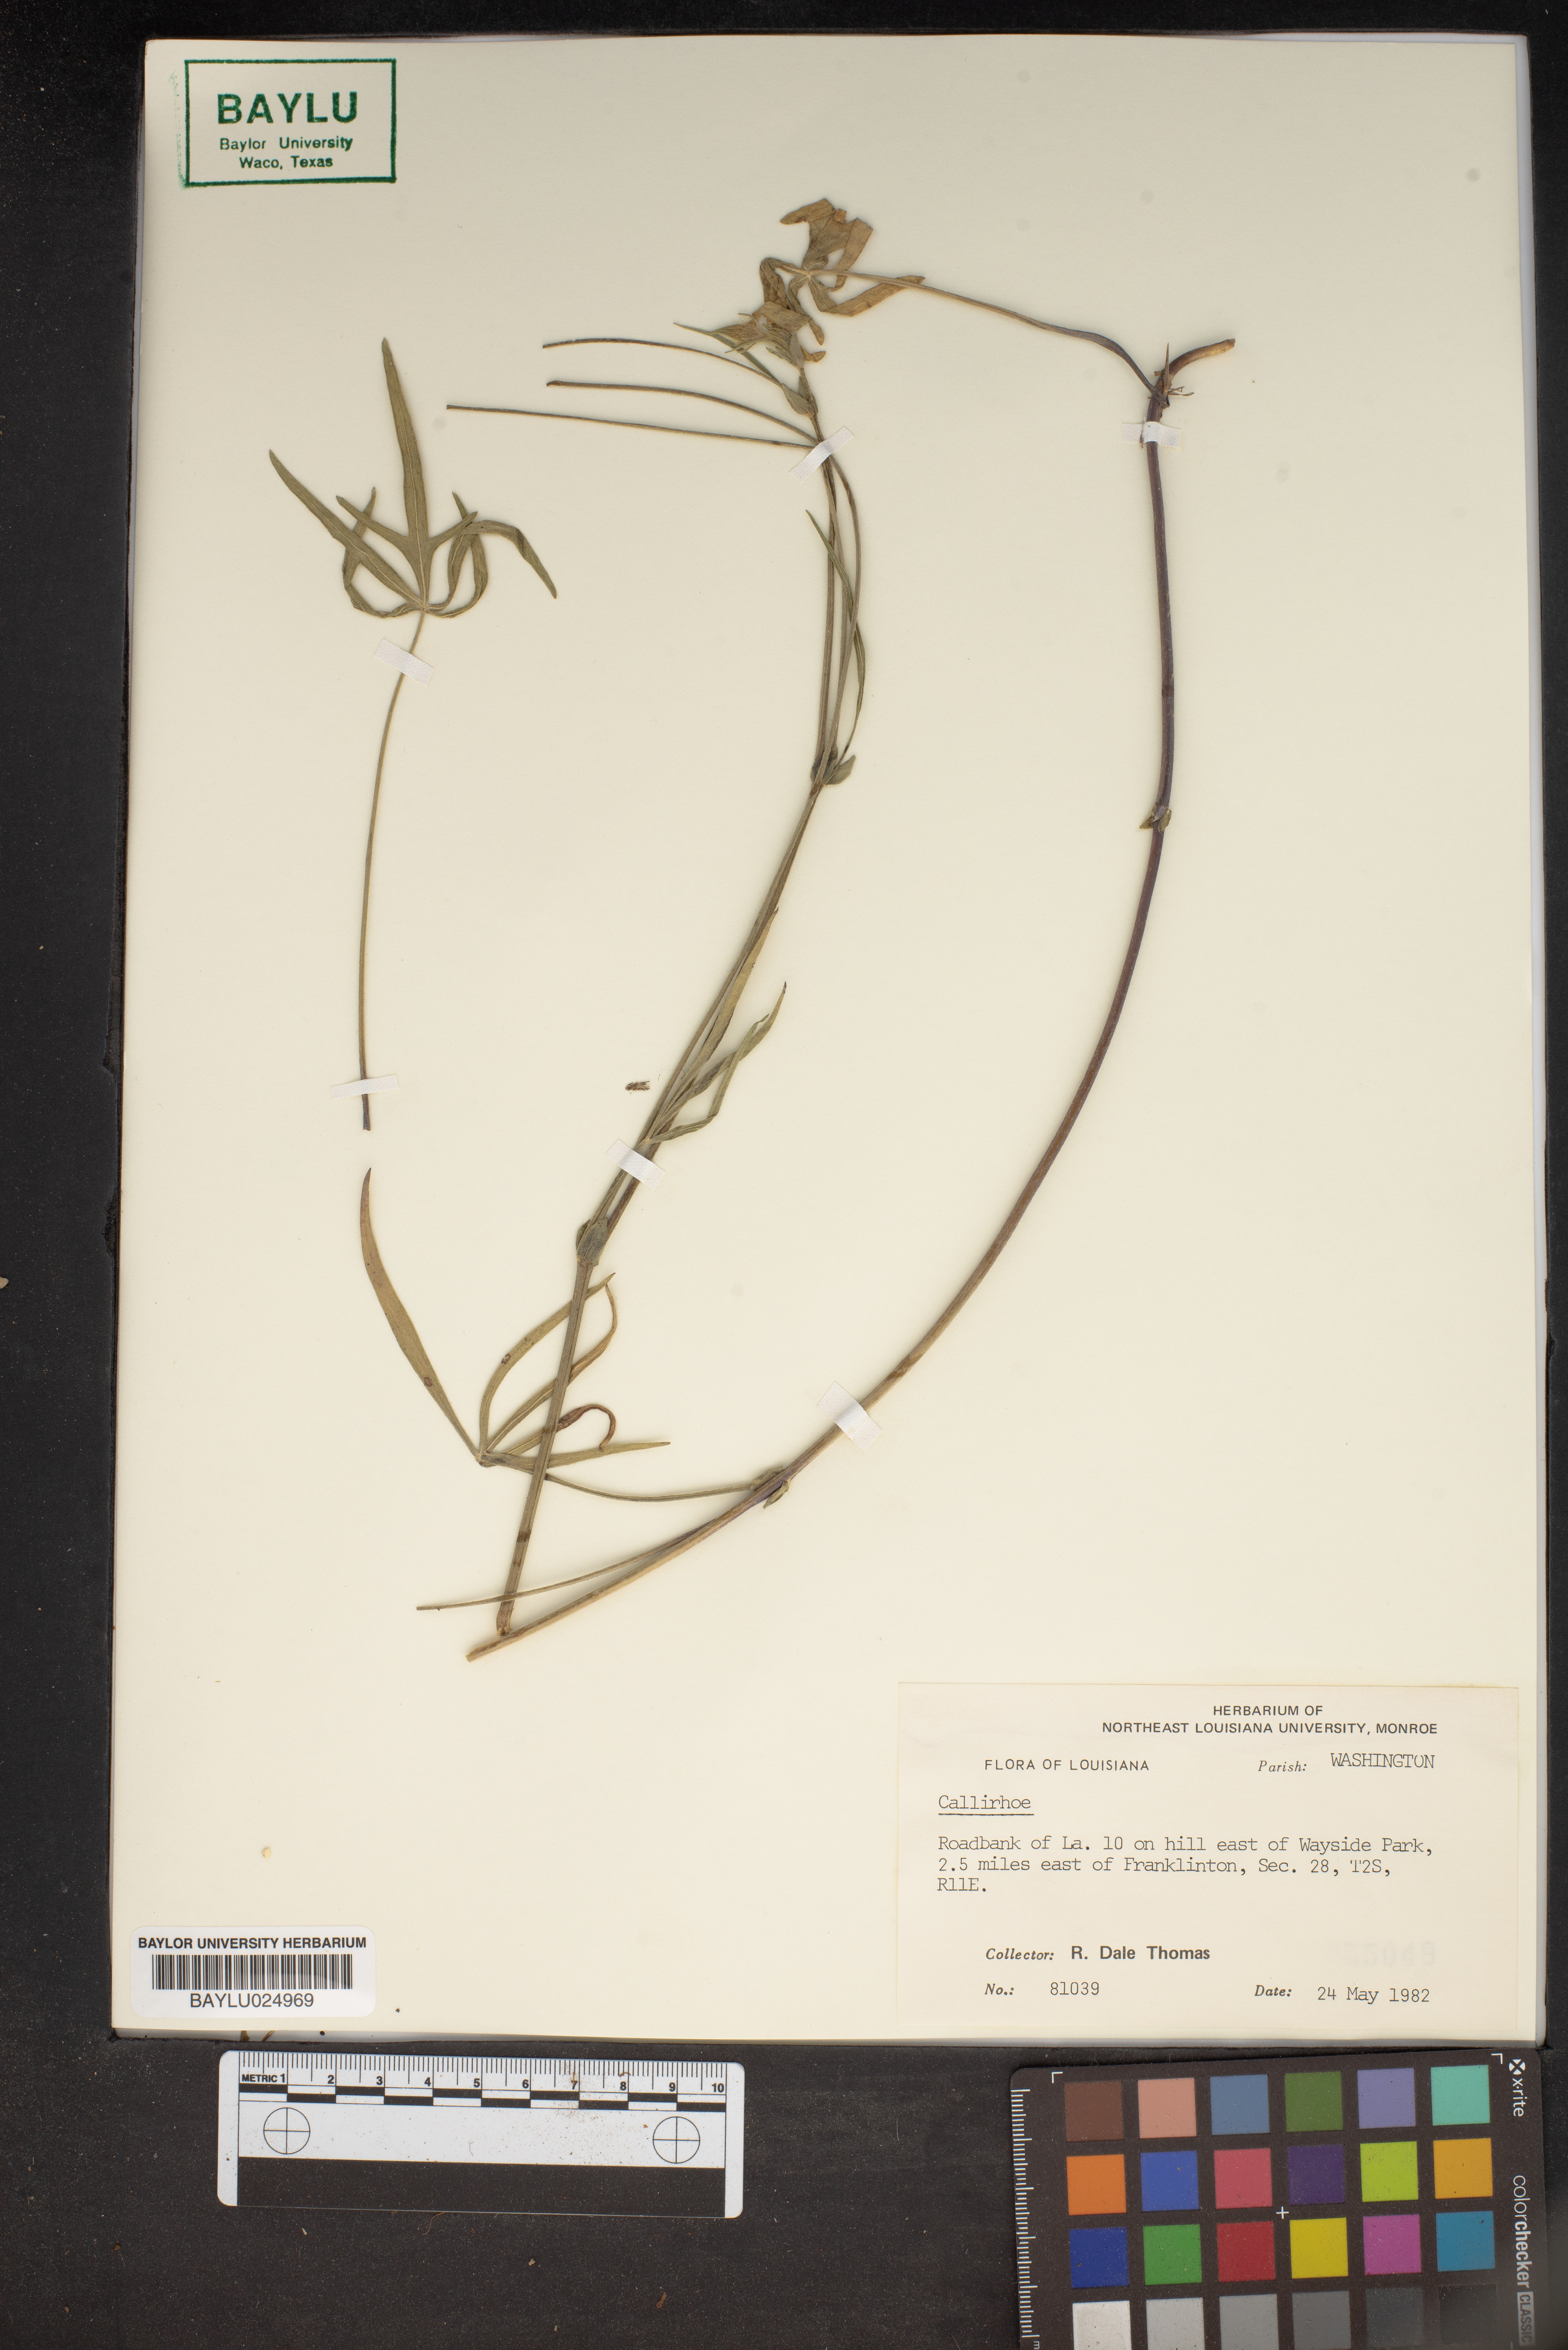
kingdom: Plantae
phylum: Tracheophyta
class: Magnoliopsida
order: Malvales
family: Malvaceae
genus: Callirhoe
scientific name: Callirhoe
